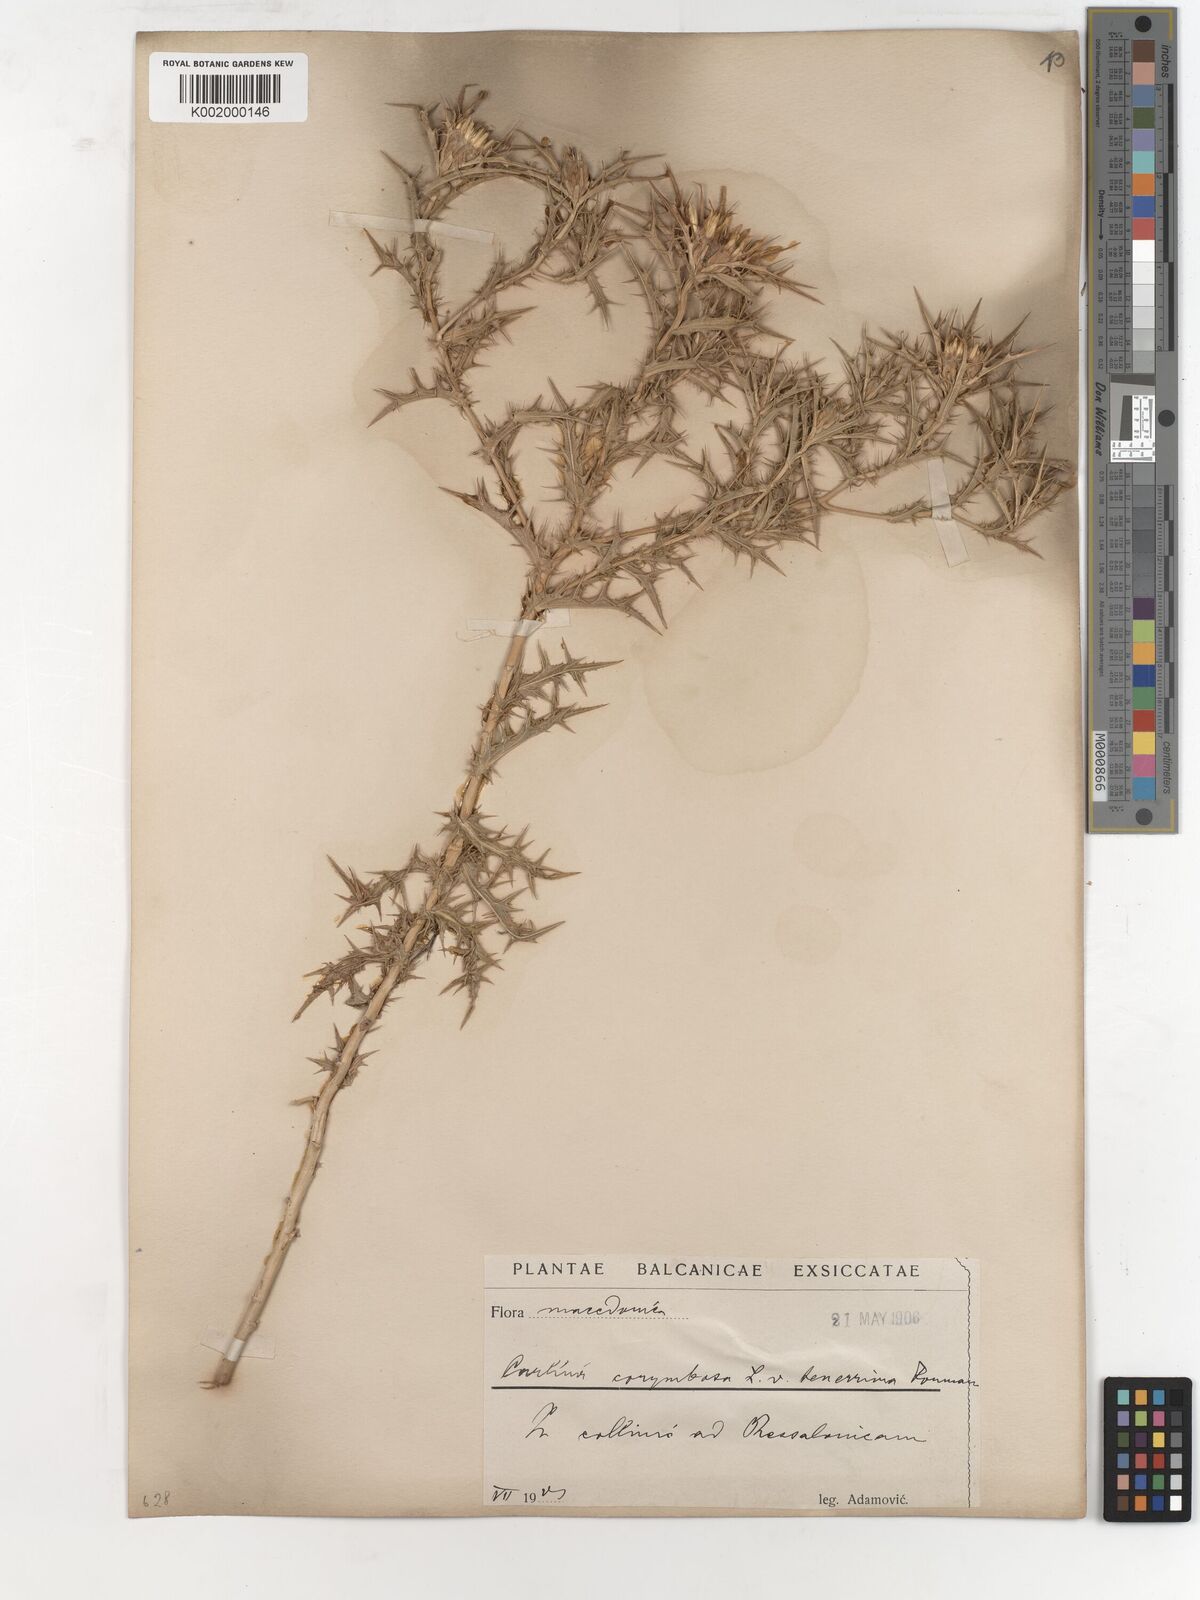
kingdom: Plantae
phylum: Tracheophyta
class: Magnoliopsida
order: Asterales
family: Asteraceae
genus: Carlina
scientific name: Carlina corymbosa
